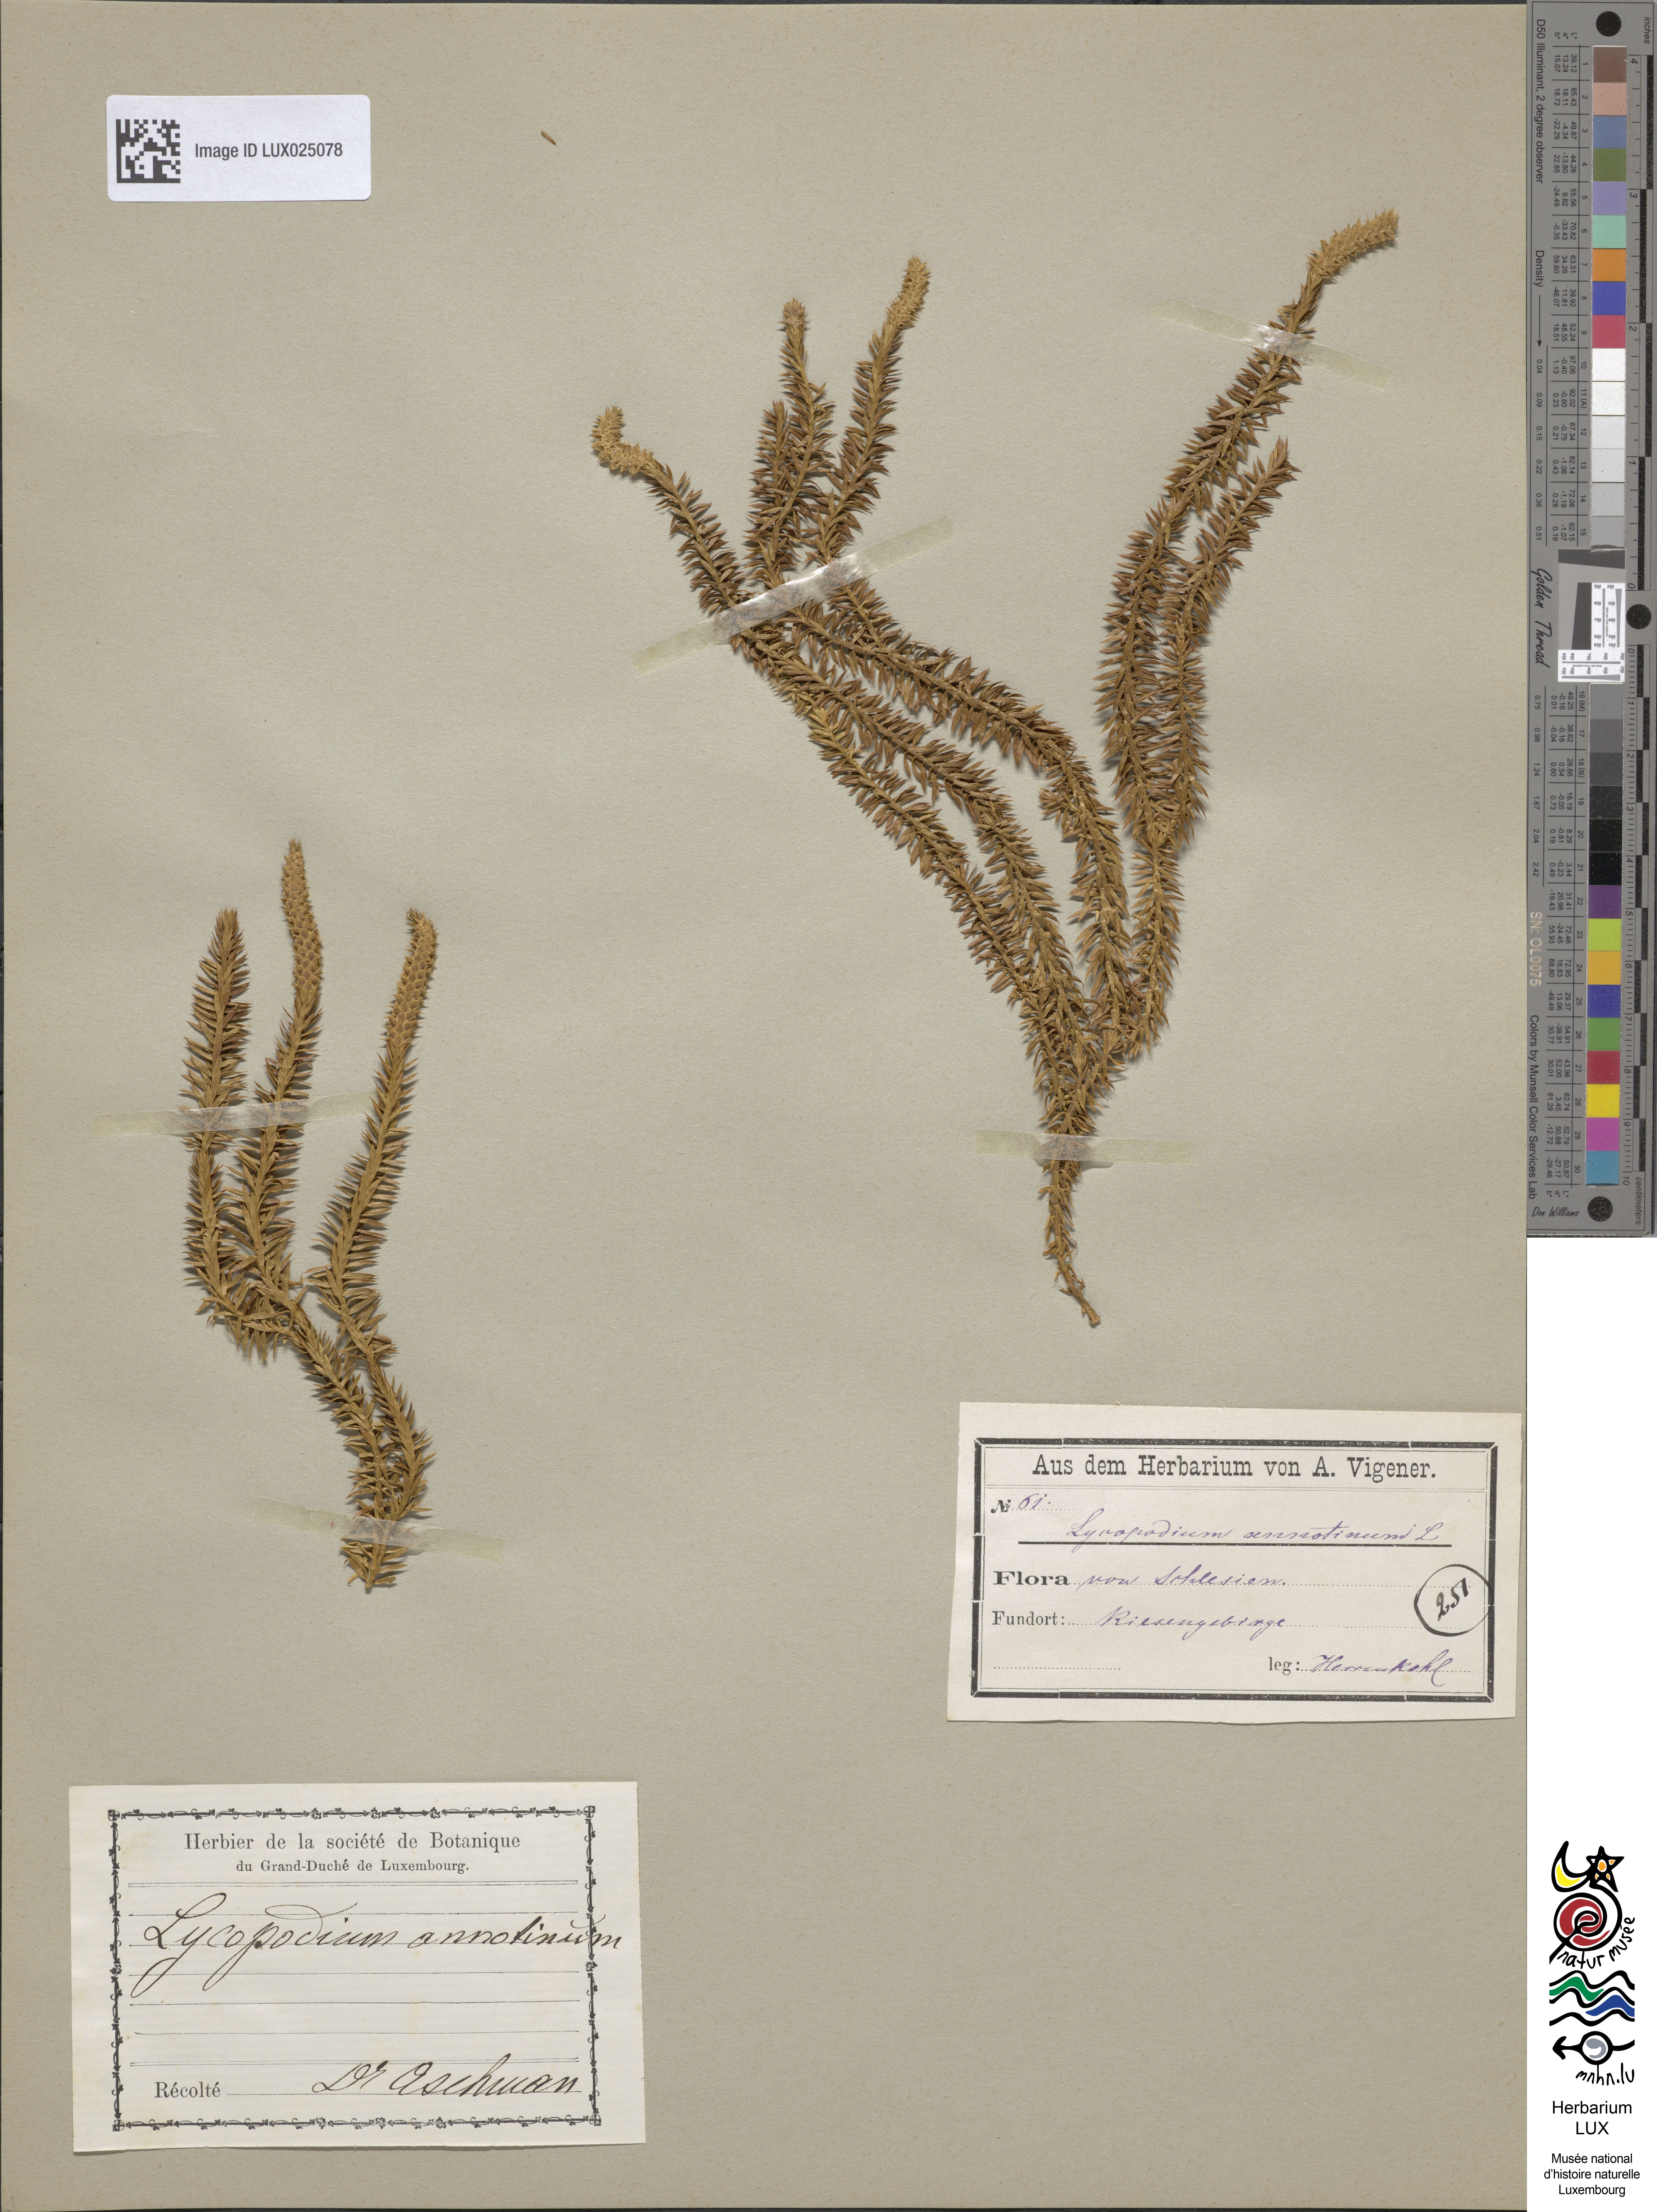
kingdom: Plantae
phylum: Tracheophyta
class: Lycopodiopsida
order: Lycopodiales
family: Lycopodiaceae
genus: Spinulum
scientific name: Spinulum annotinum
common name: Interrupted club-moss
